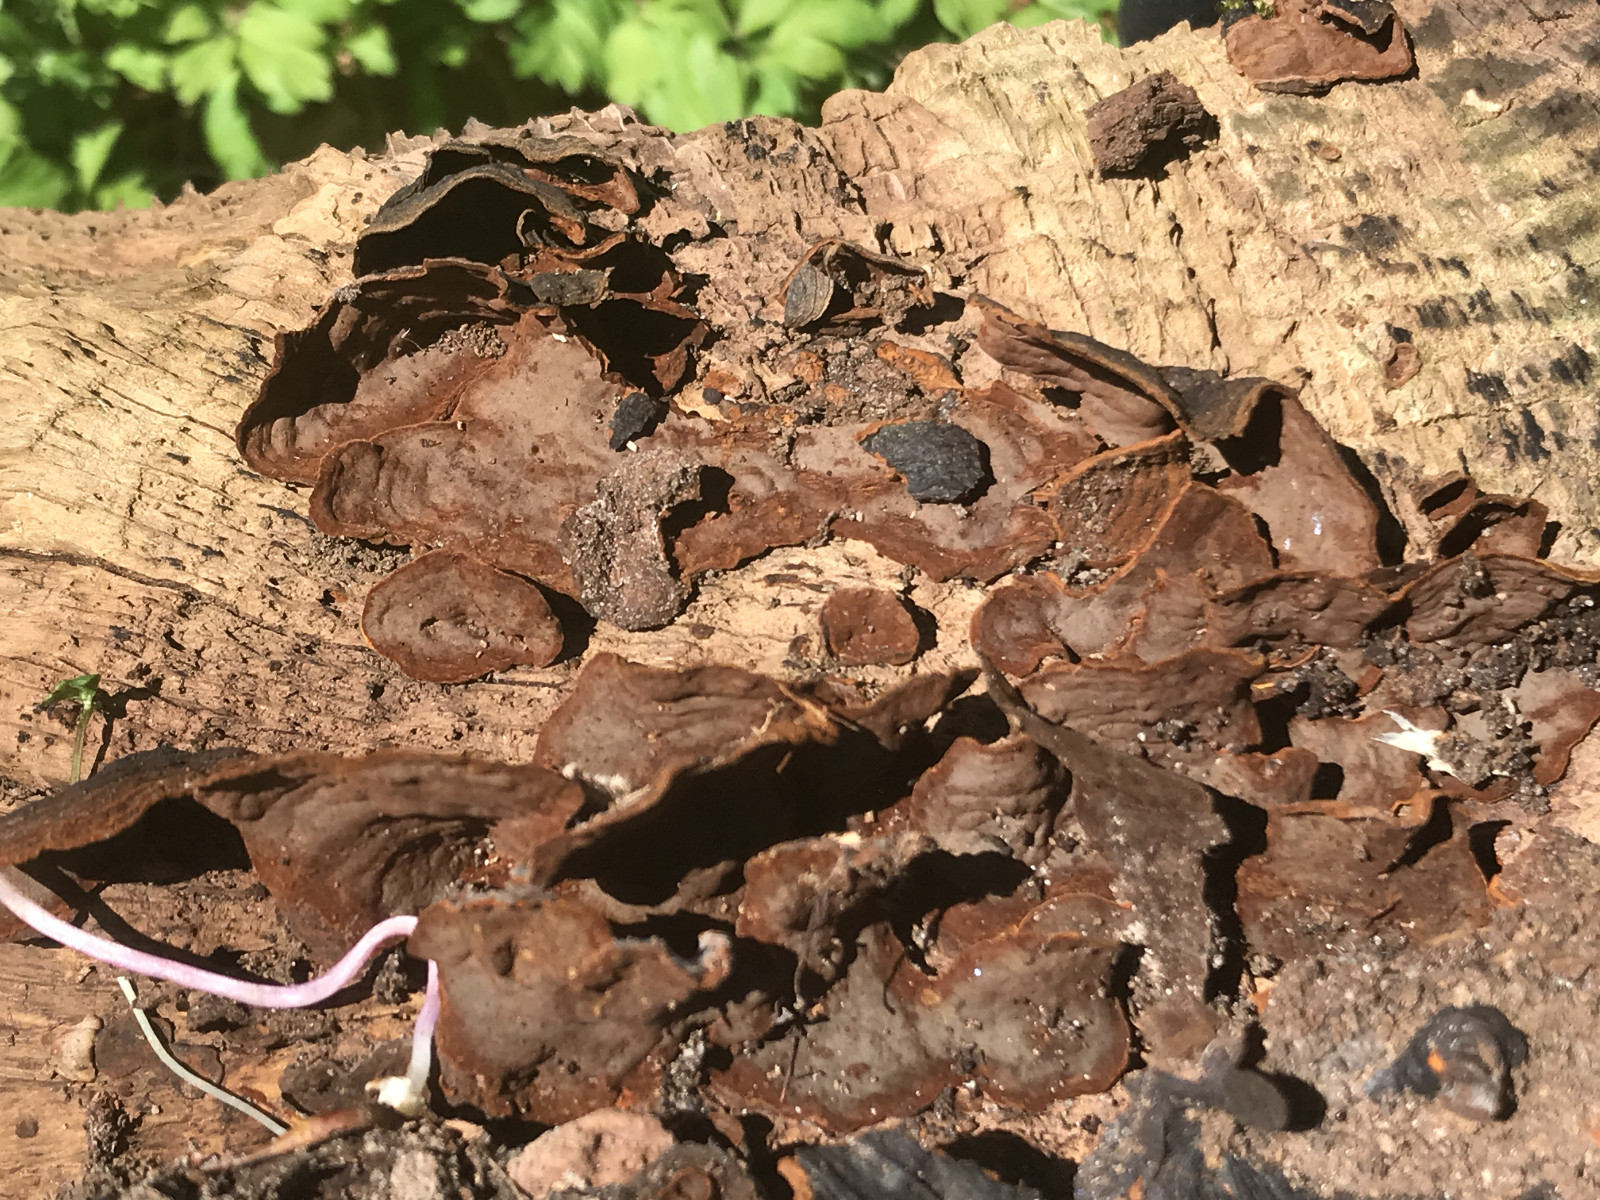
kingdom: Fungi
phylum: Basidiomycota
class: Agaricomycetes
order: Hymenochaetales
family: Hymenochaetaceae
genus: Hymenochaete
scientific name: Hymenochaete rubiginosa
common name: stiv ruslædersvamp
